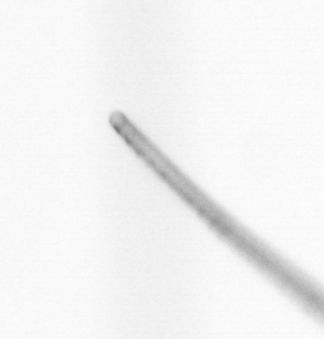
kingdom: Chromista
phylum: Ochrophyta
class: Bacillariophyceae
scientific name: Bacillariophyceae
